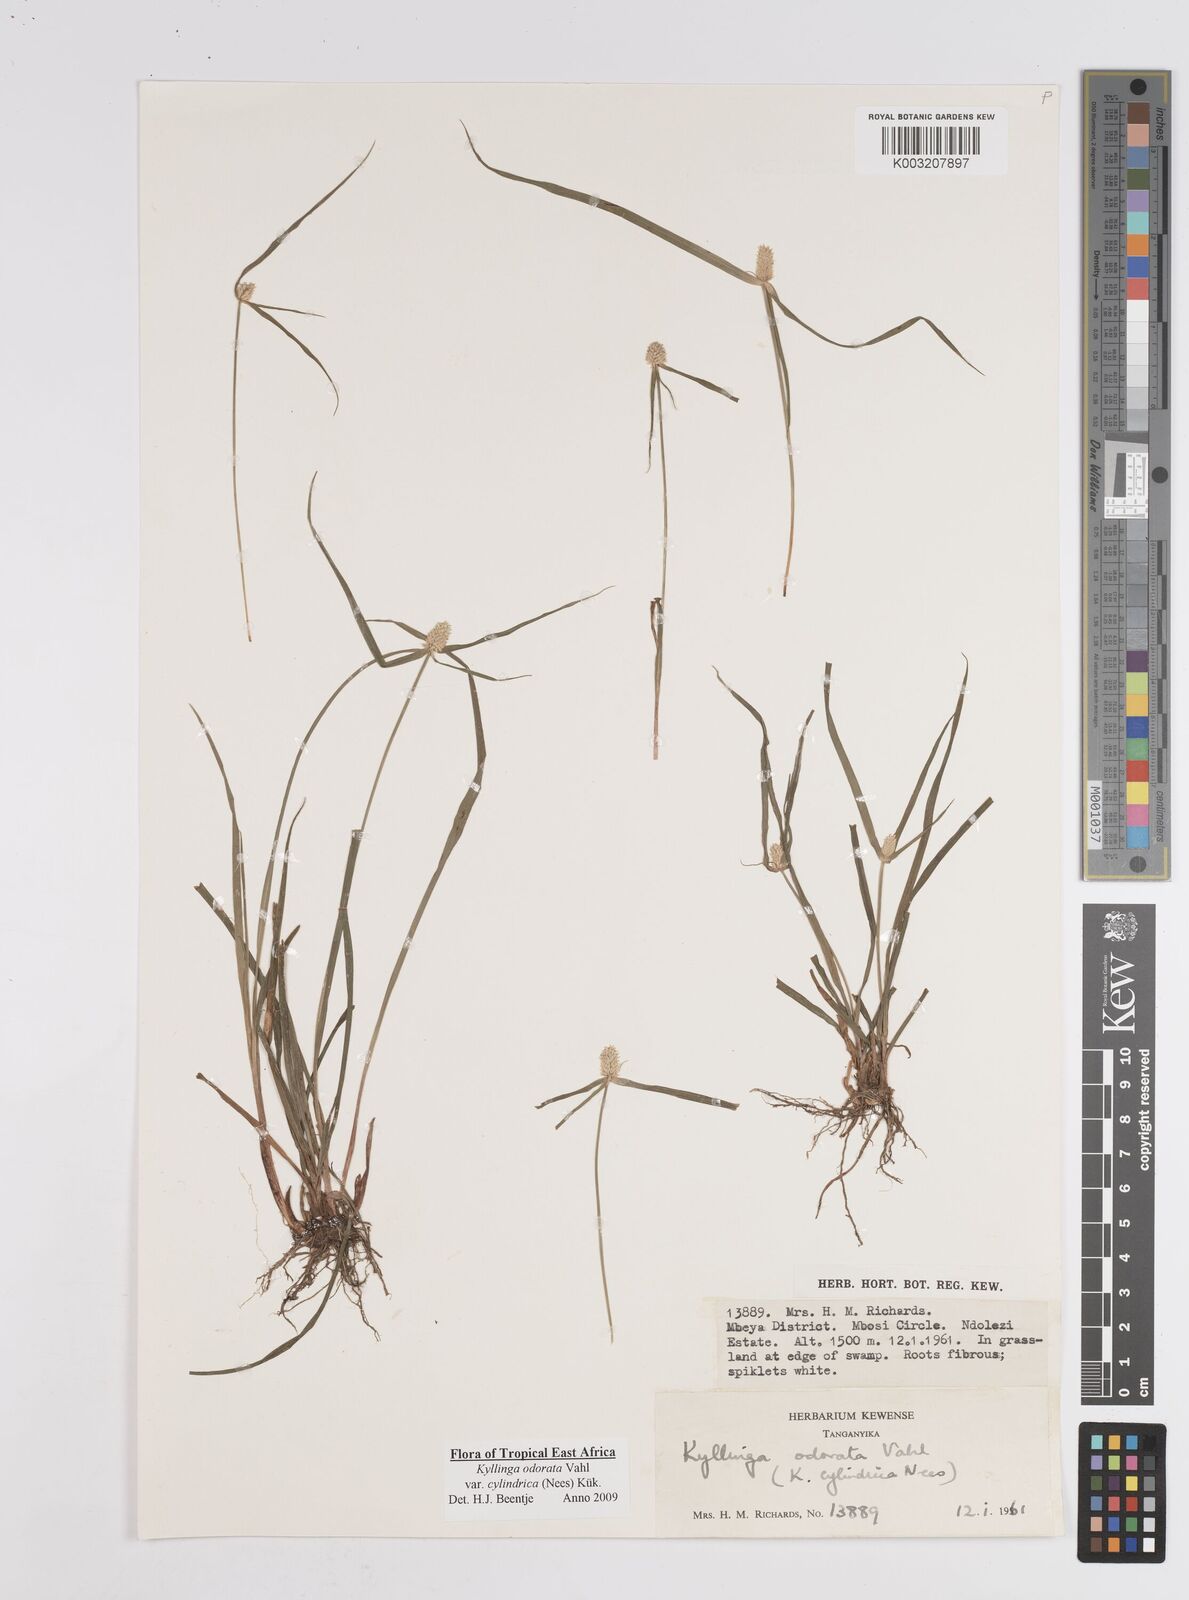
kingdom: Plantae
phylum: Tracheophyta
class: Liliopsida
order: Poales
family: Cyperaceae
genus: Cyperus
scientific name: Cyperus
